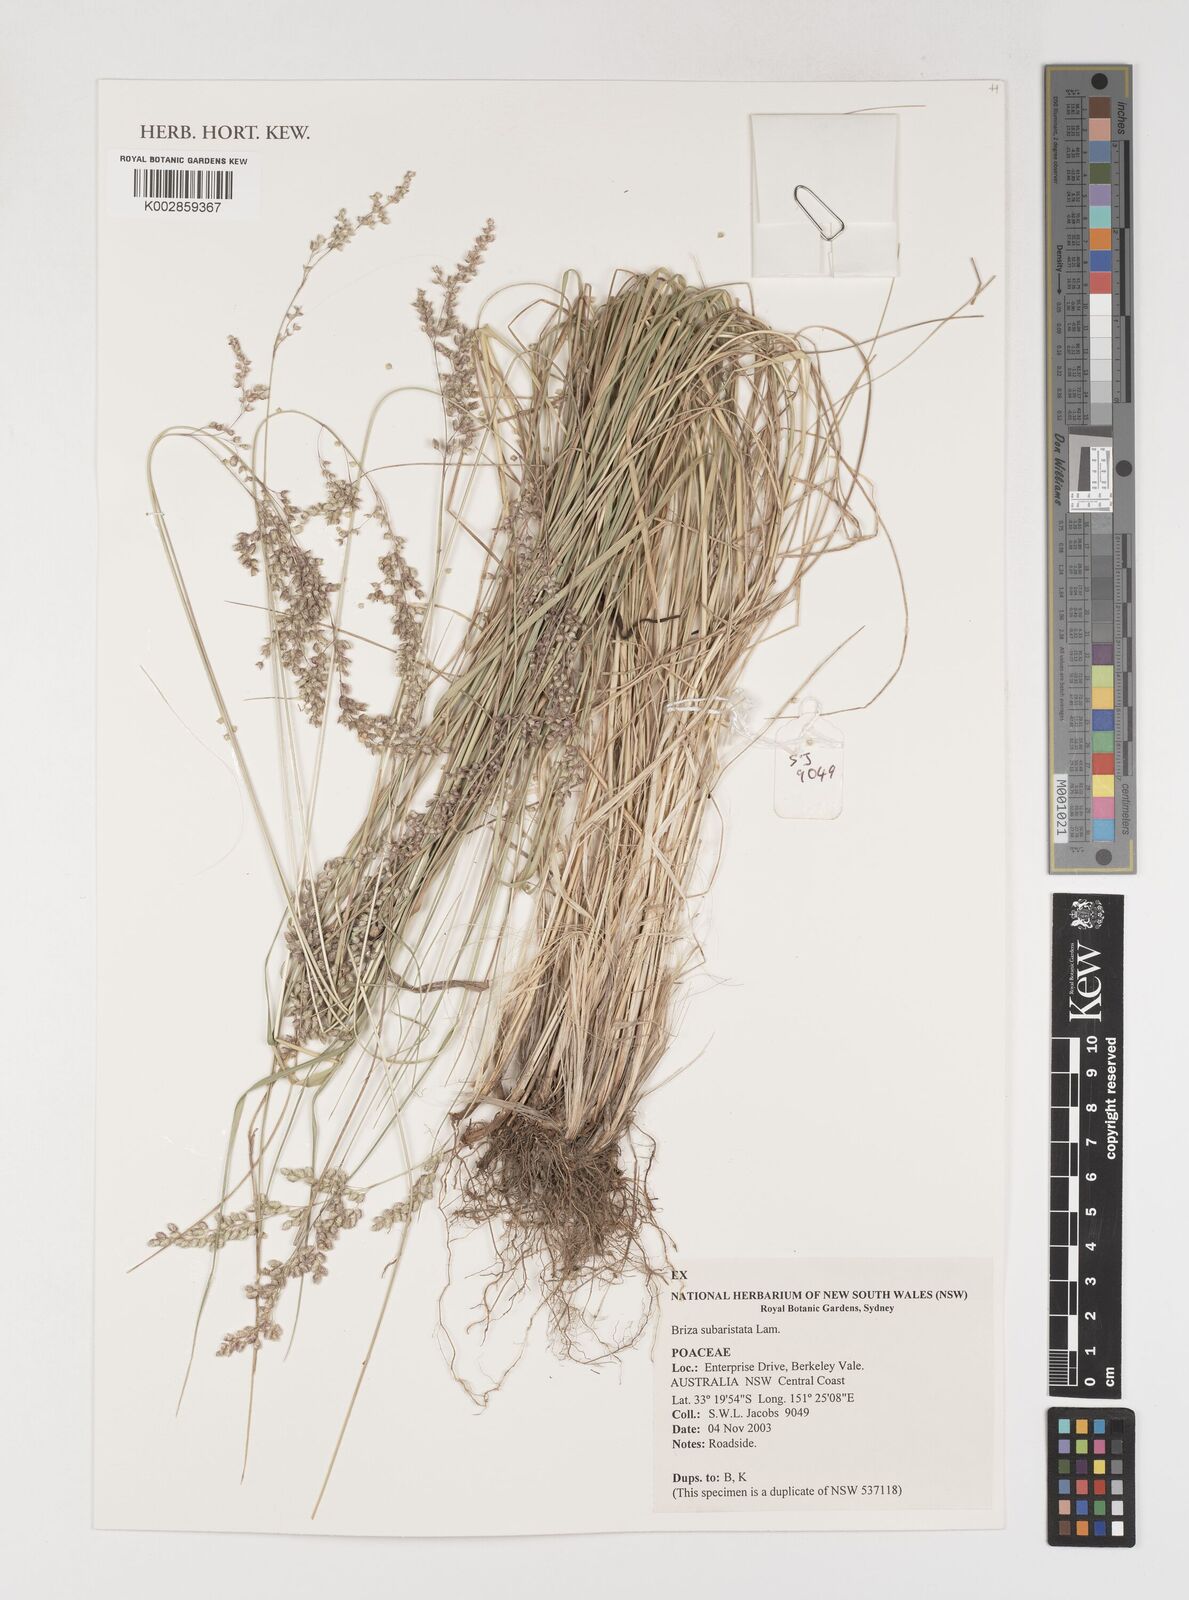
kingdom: Plantae
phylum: Tracheophyta
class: Liliopsida
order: Poales
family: Poaceae
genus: Chascolytrum
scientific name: Chascolytrum subaristatum
